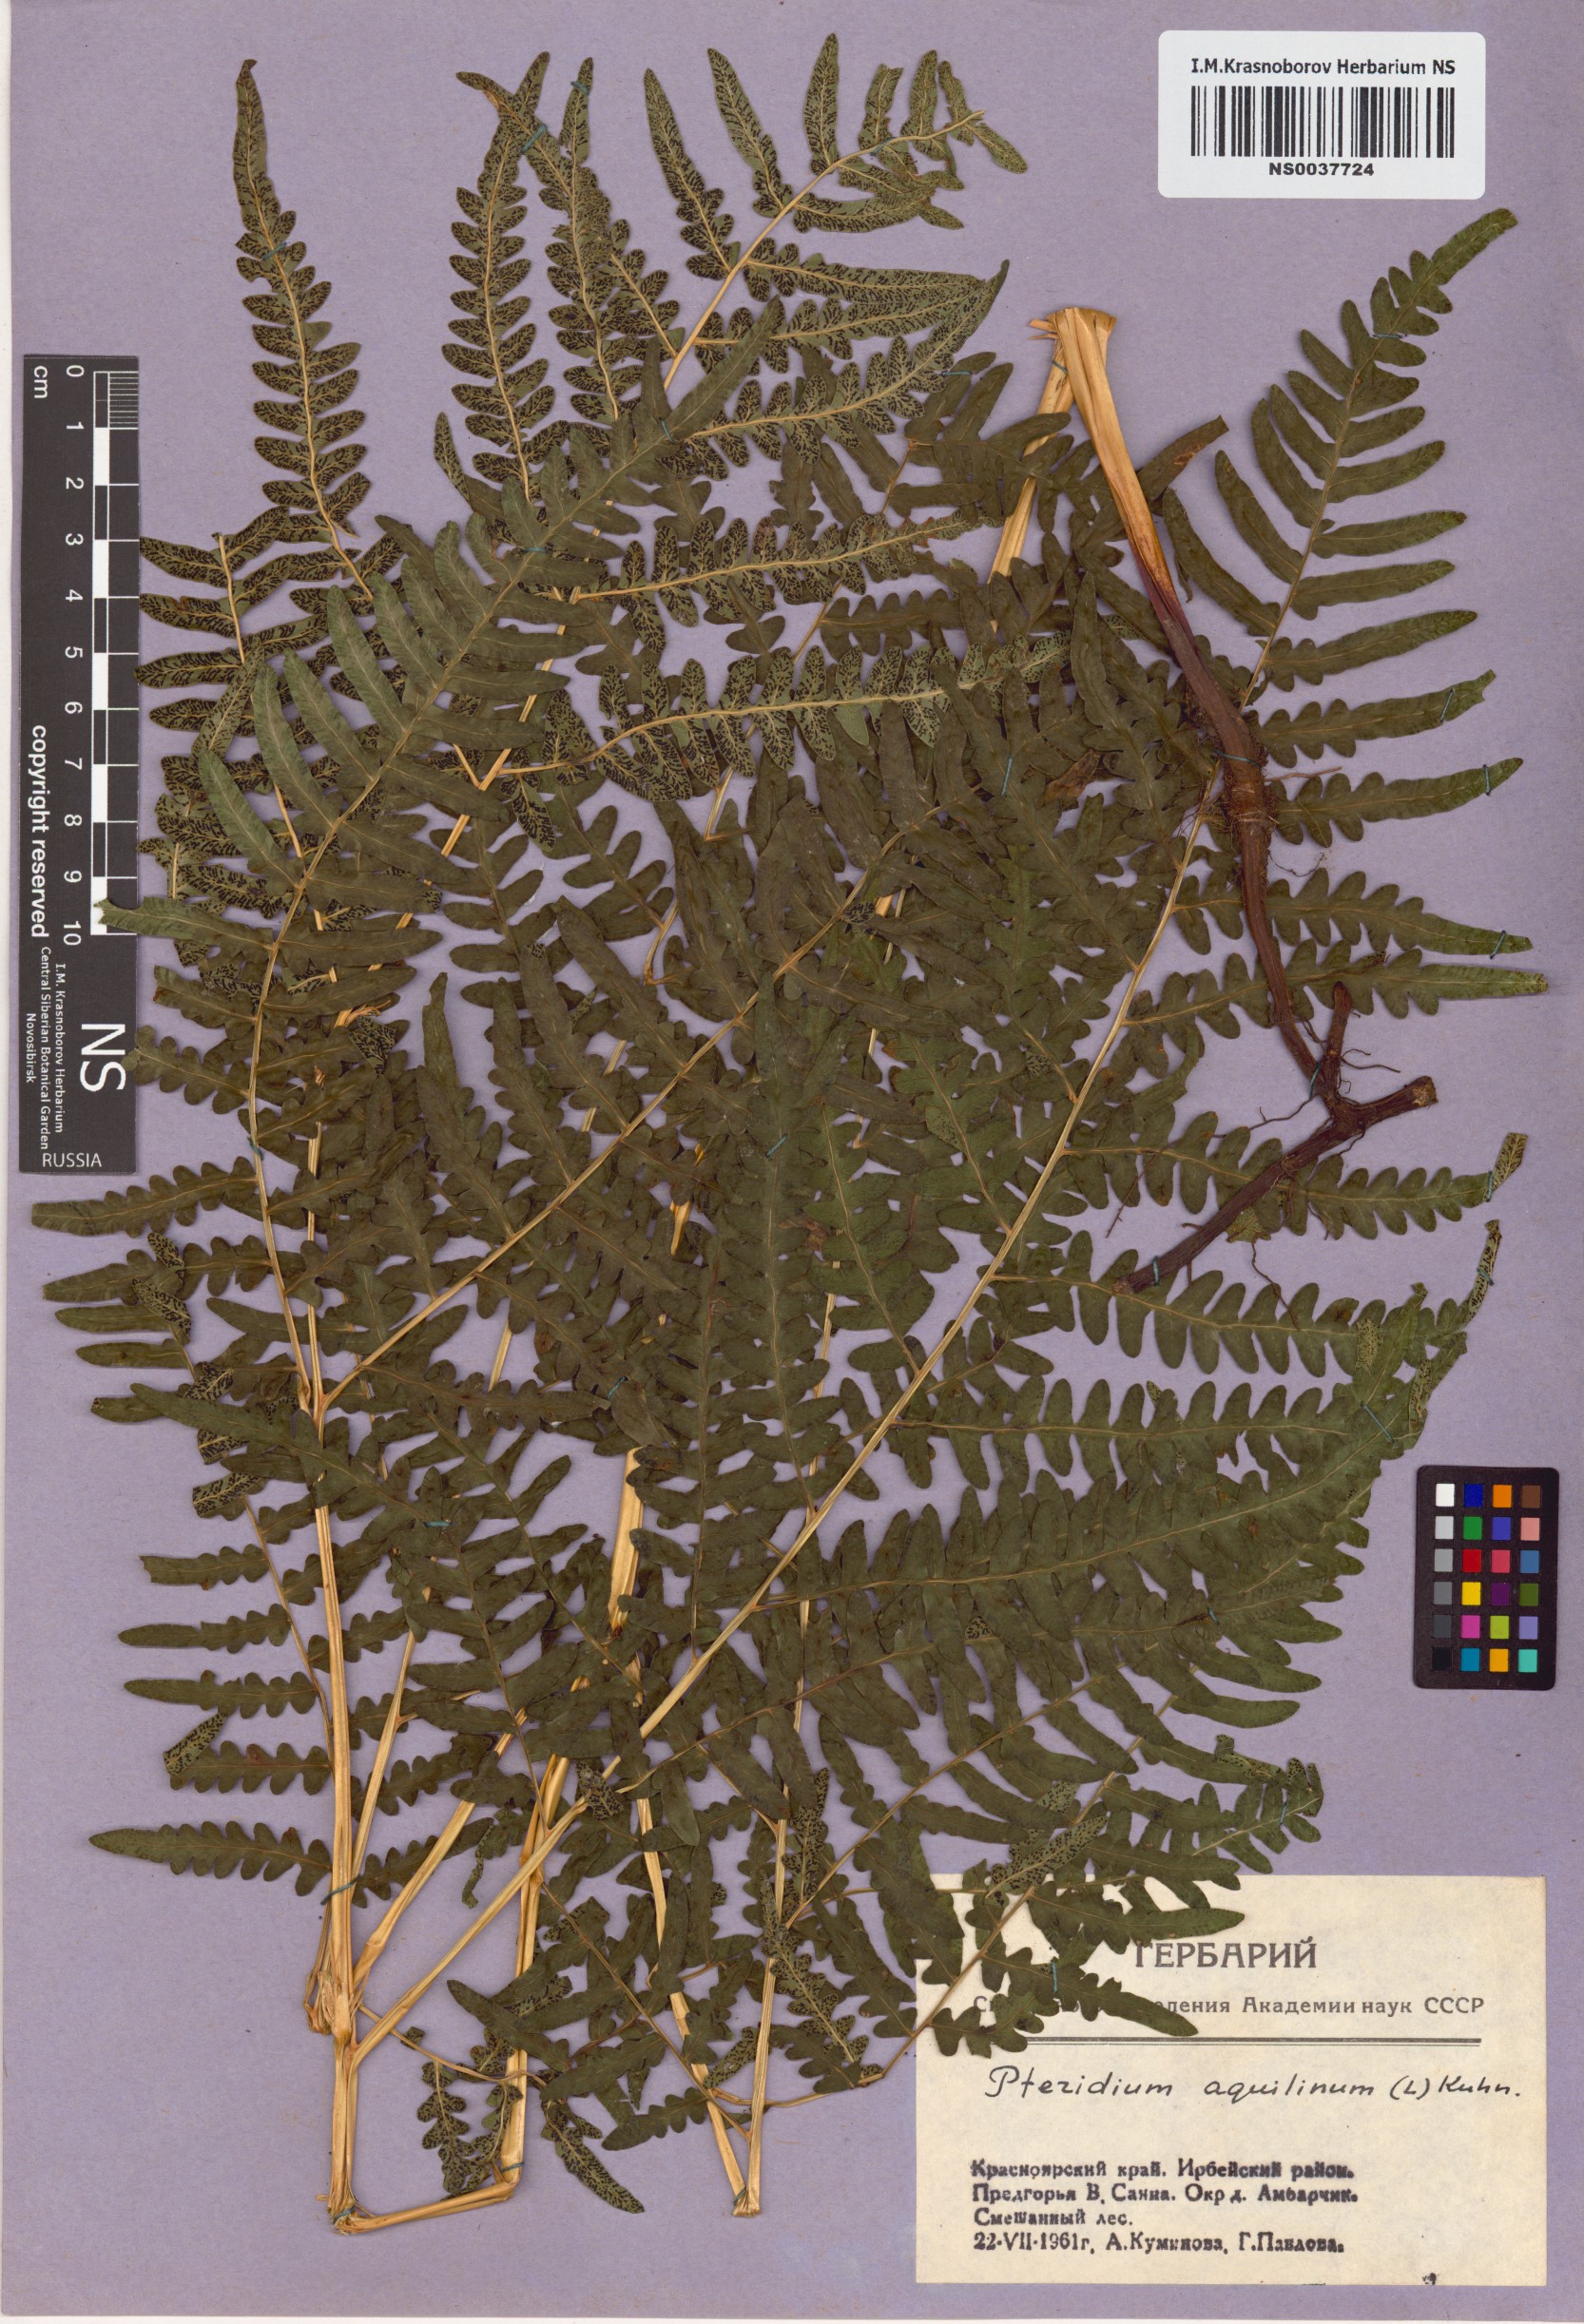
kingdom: Plantae
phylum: Tracheophyta
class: Polypodiopsida
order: Polypodiales
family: Dennstaedtiaceae
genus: Pteridium
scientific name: Pteridium aquilinum
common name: Bracken
